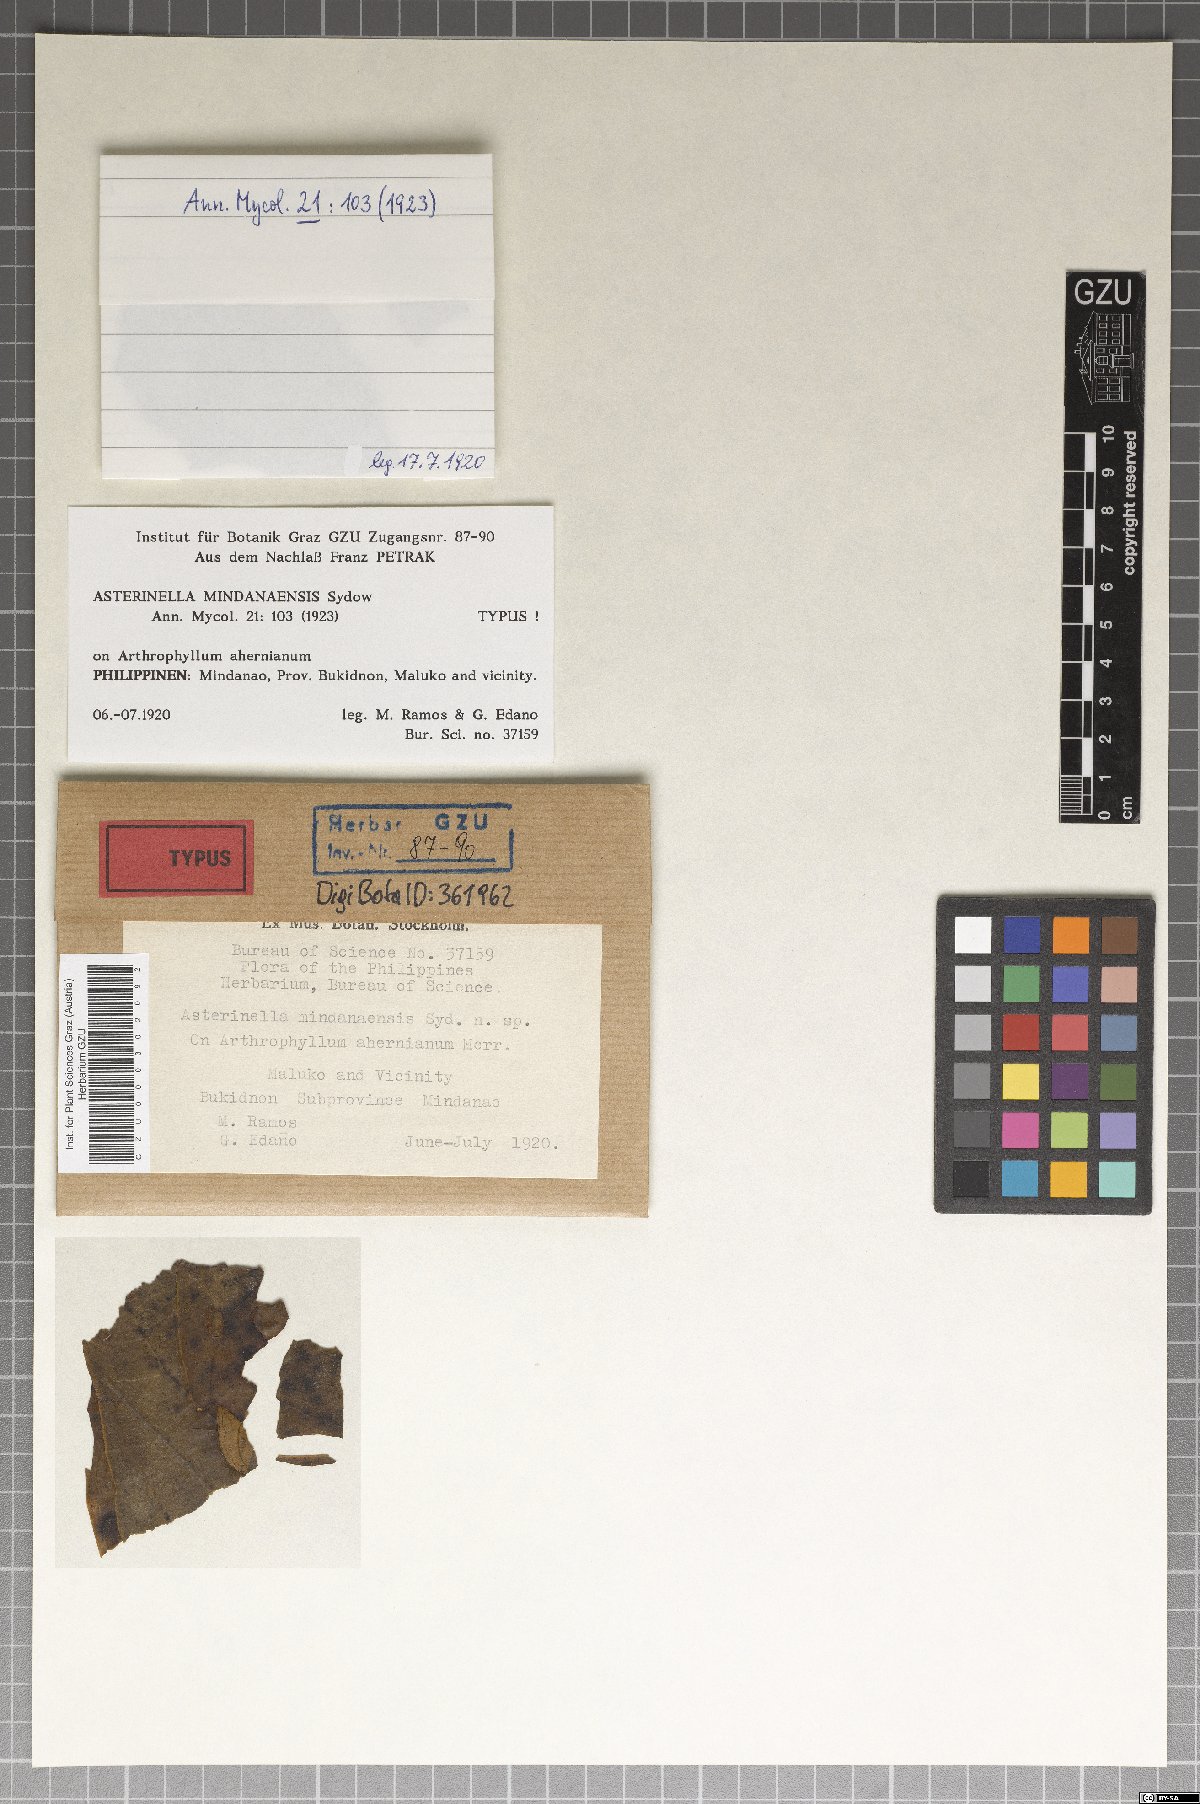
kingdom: Fungi
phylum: Ascomycota
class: Dothideomycetes
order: Microthyriales
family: Microthyriaceae
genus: Asterinella
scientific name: Asterinella mindanaensis
